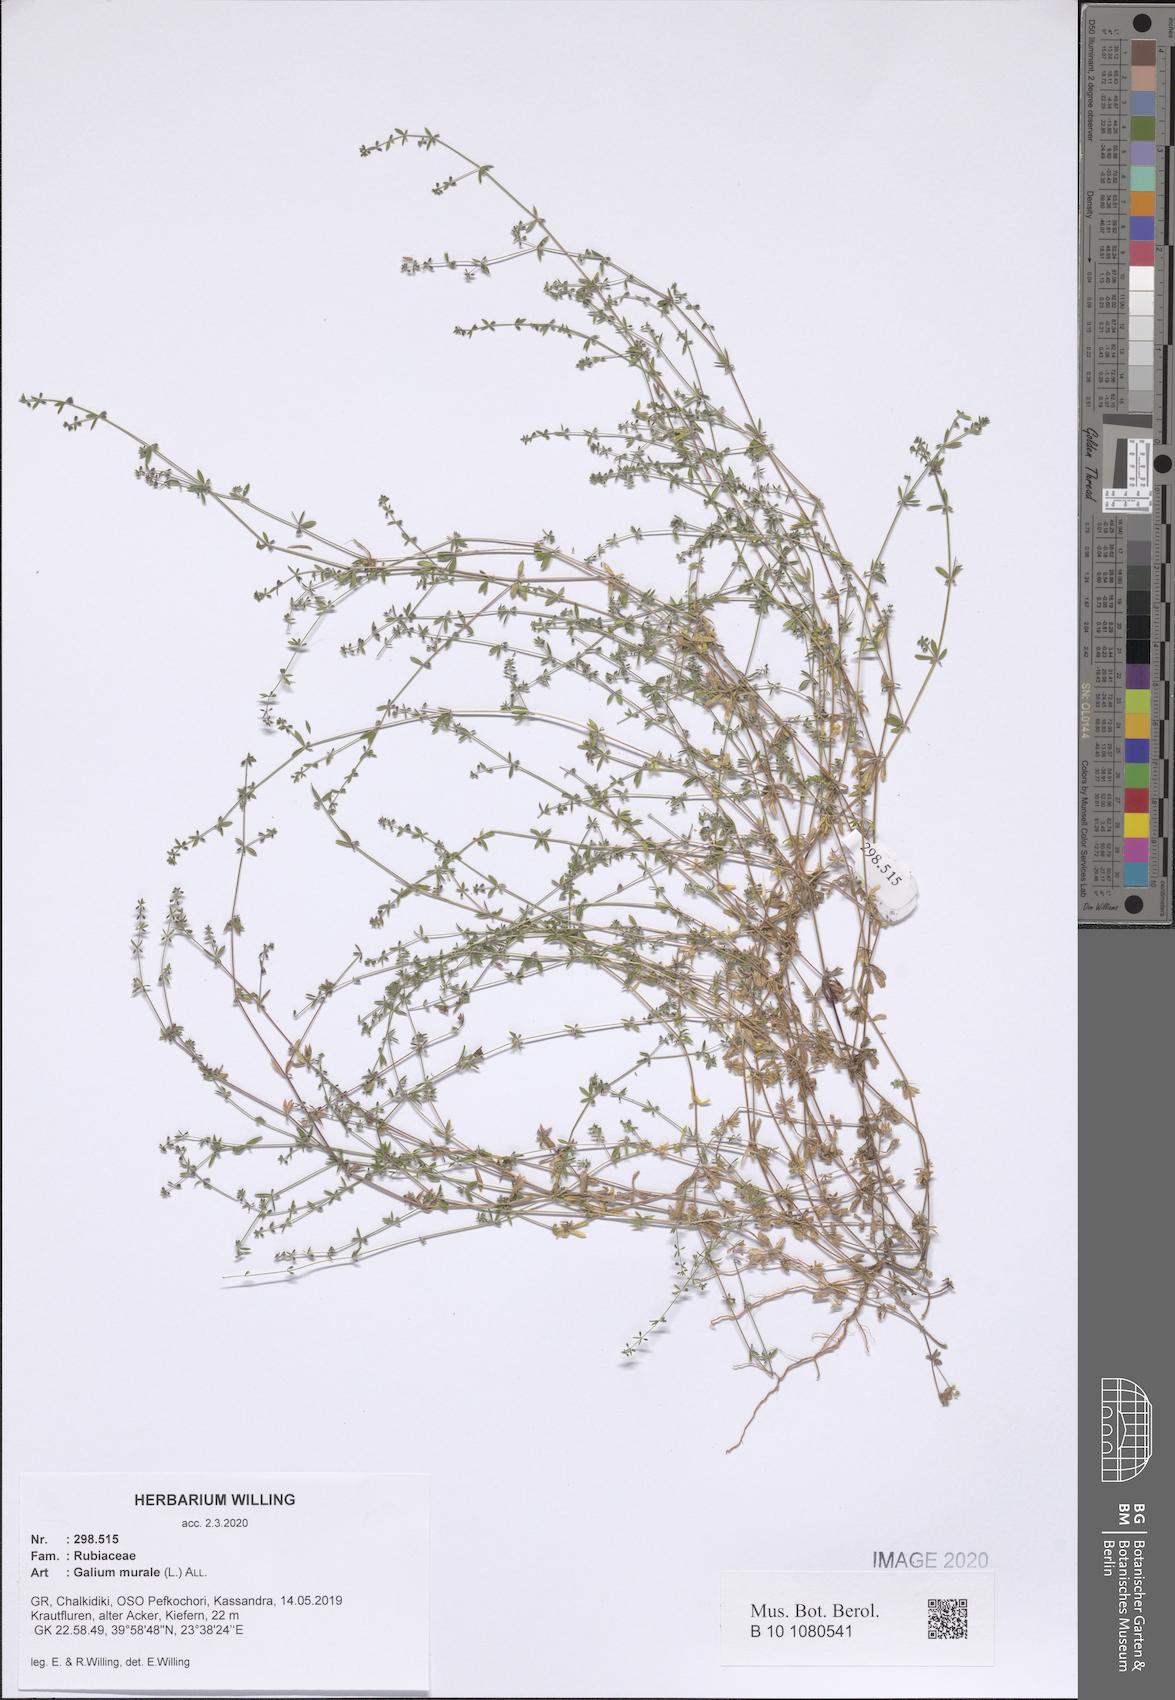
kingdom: Plantae
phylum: Tracheophyta
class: Magnoliopsida
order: Gentianales
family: Rubiaceae
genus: Galium
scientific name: Galium murale
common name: Yellow wall bedstraw
